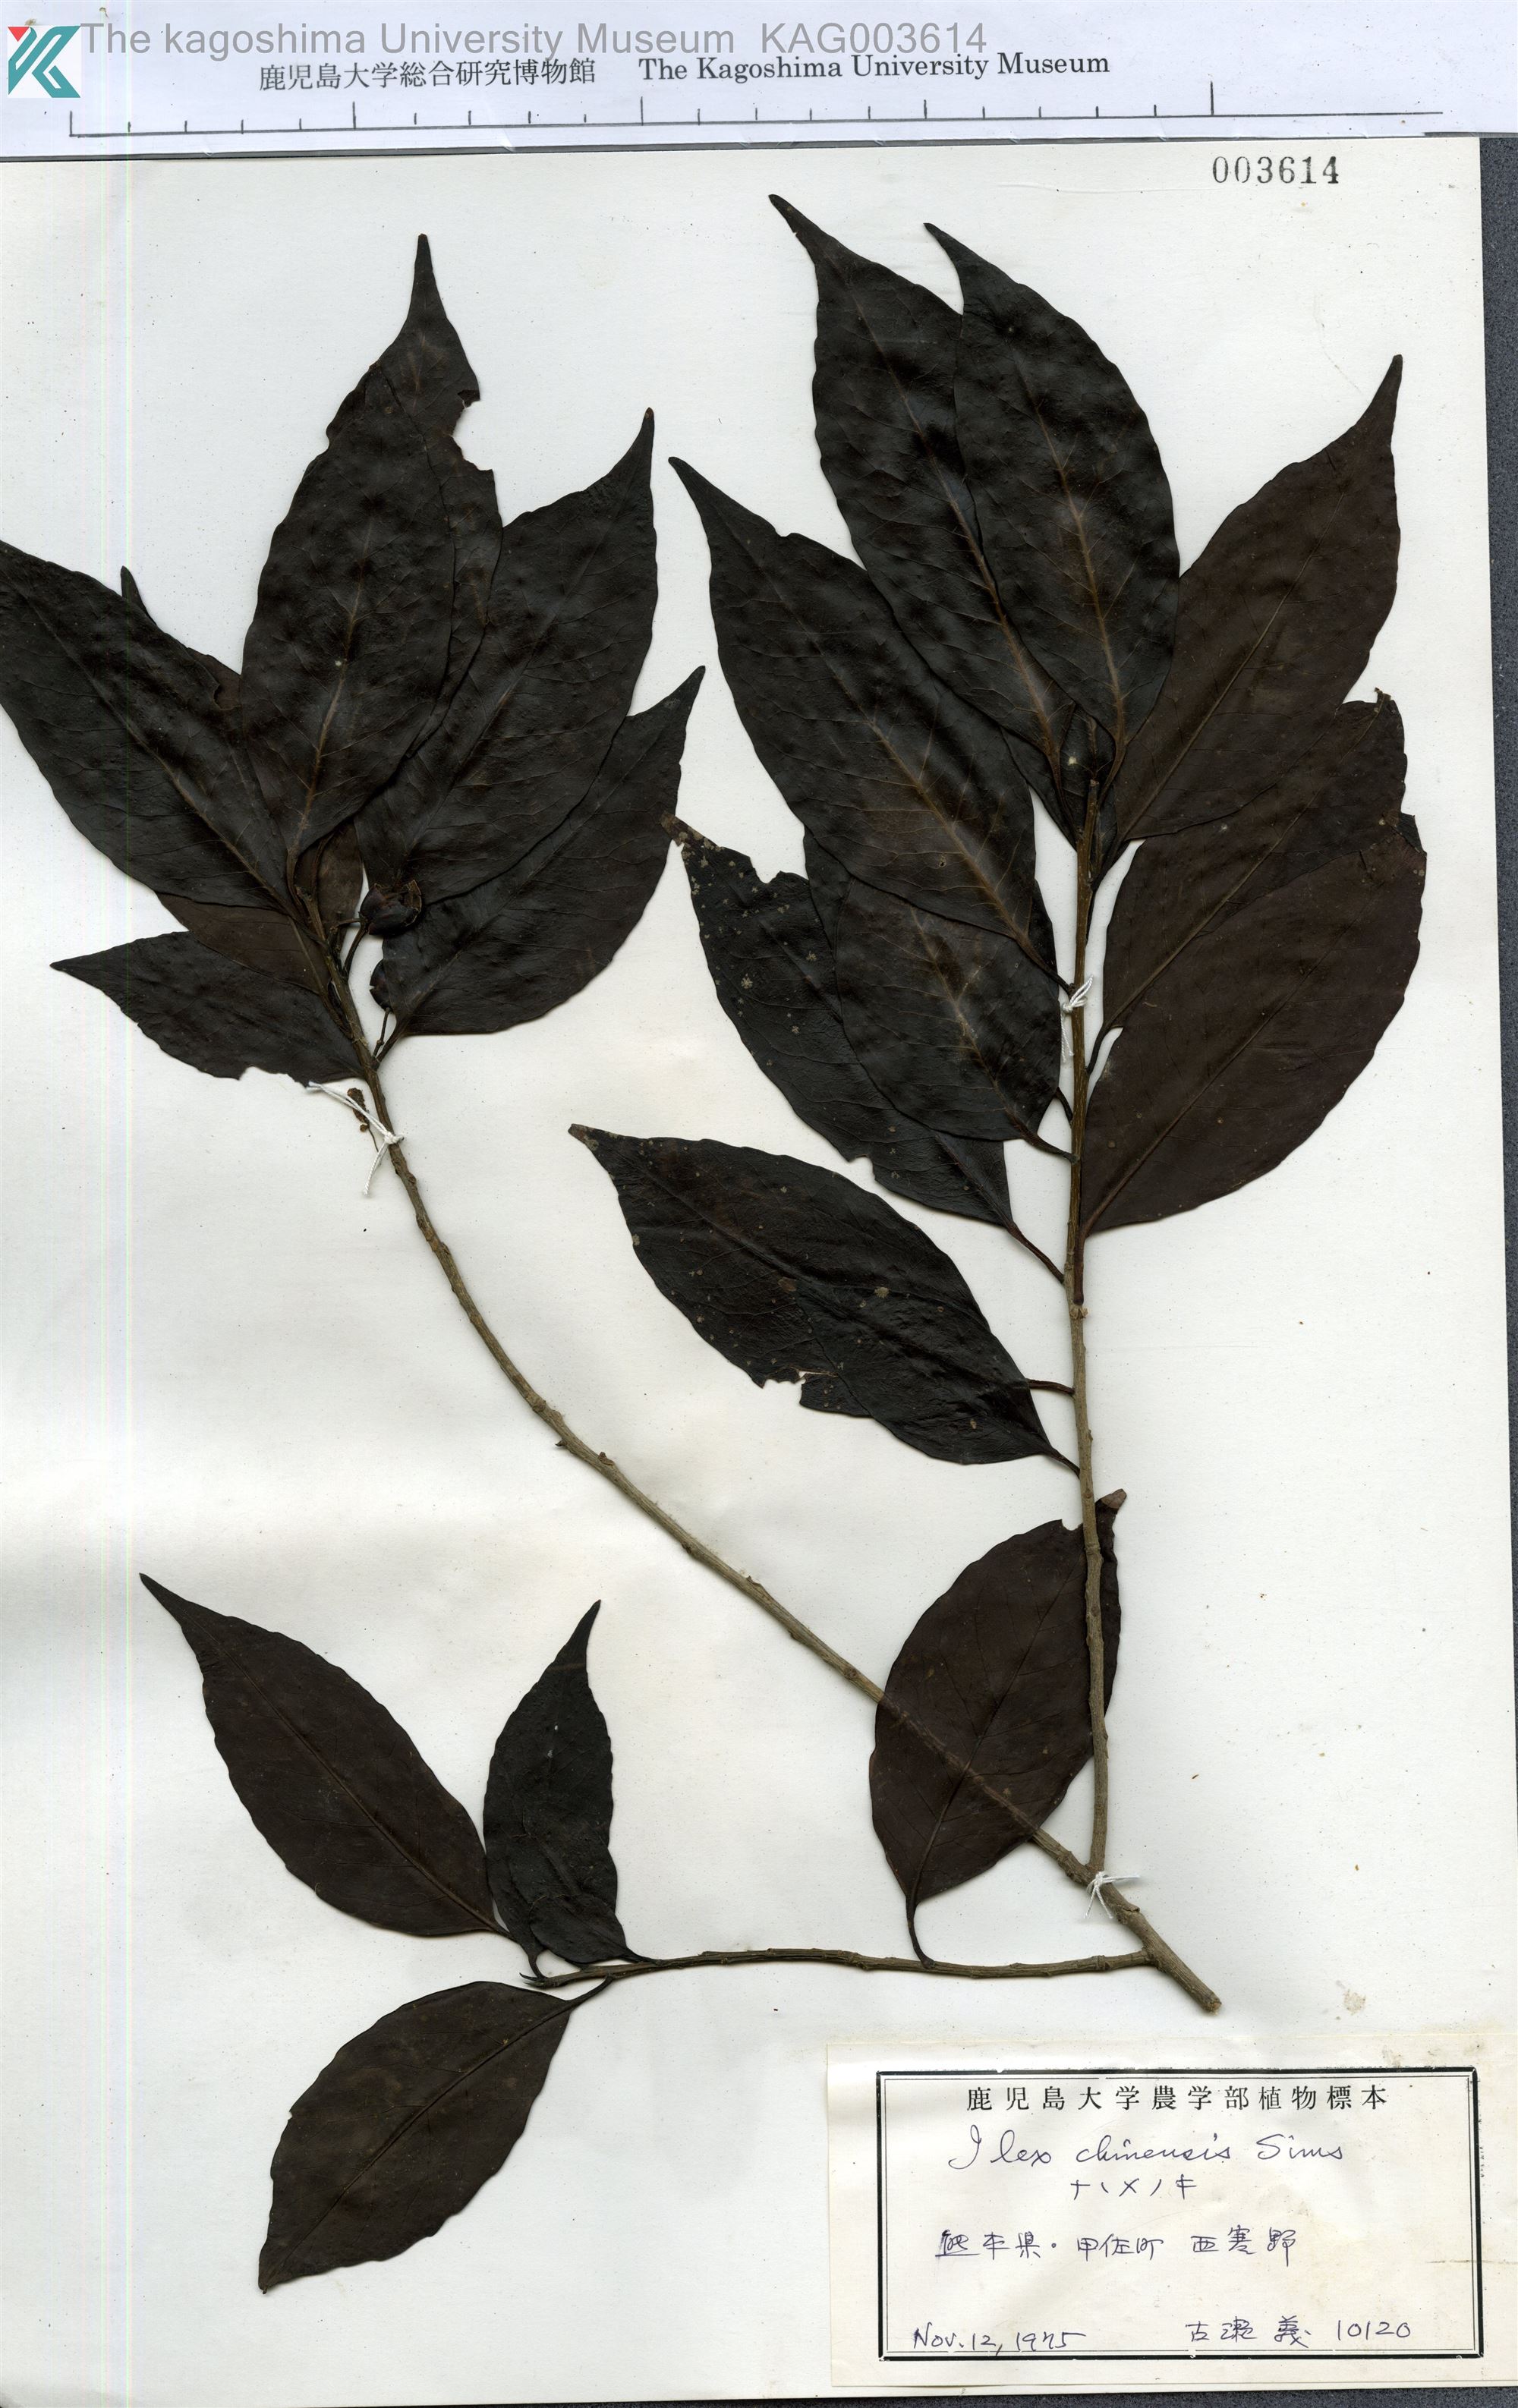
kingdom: Plantae
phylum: Tracheophyta
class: Magnoliopsida
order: Aquifoliales
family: Aquifoliaceae
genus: Ilex
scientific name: Ilex chinensis
